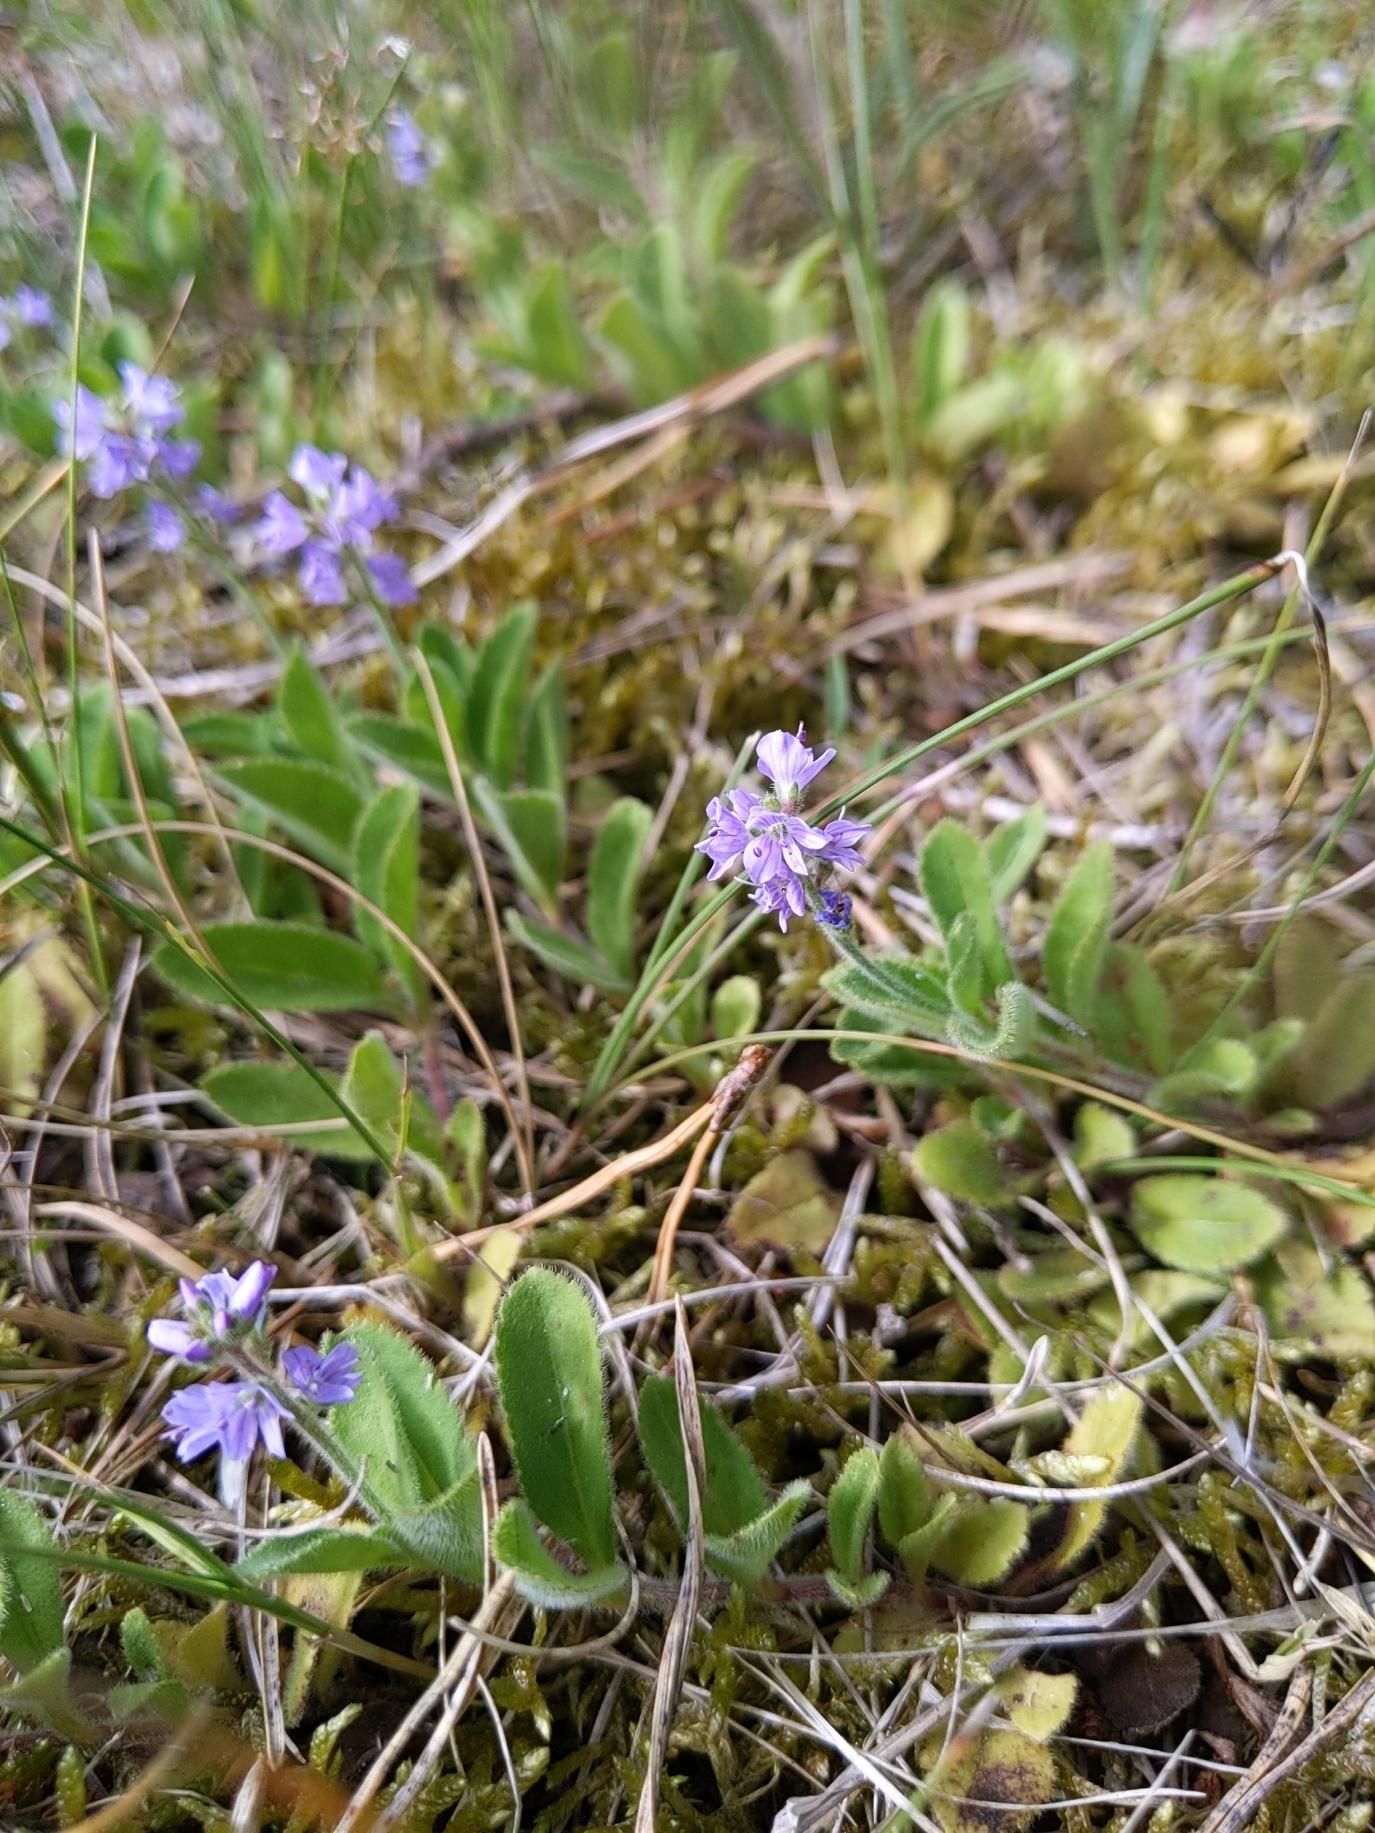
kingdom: Plantae
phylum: Tracheophyta
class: Magnoliopsida
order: Lamiales
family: Plantaginaceae
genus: Veronica
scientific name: Veronica officinalis
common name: Læge-ærenpris
